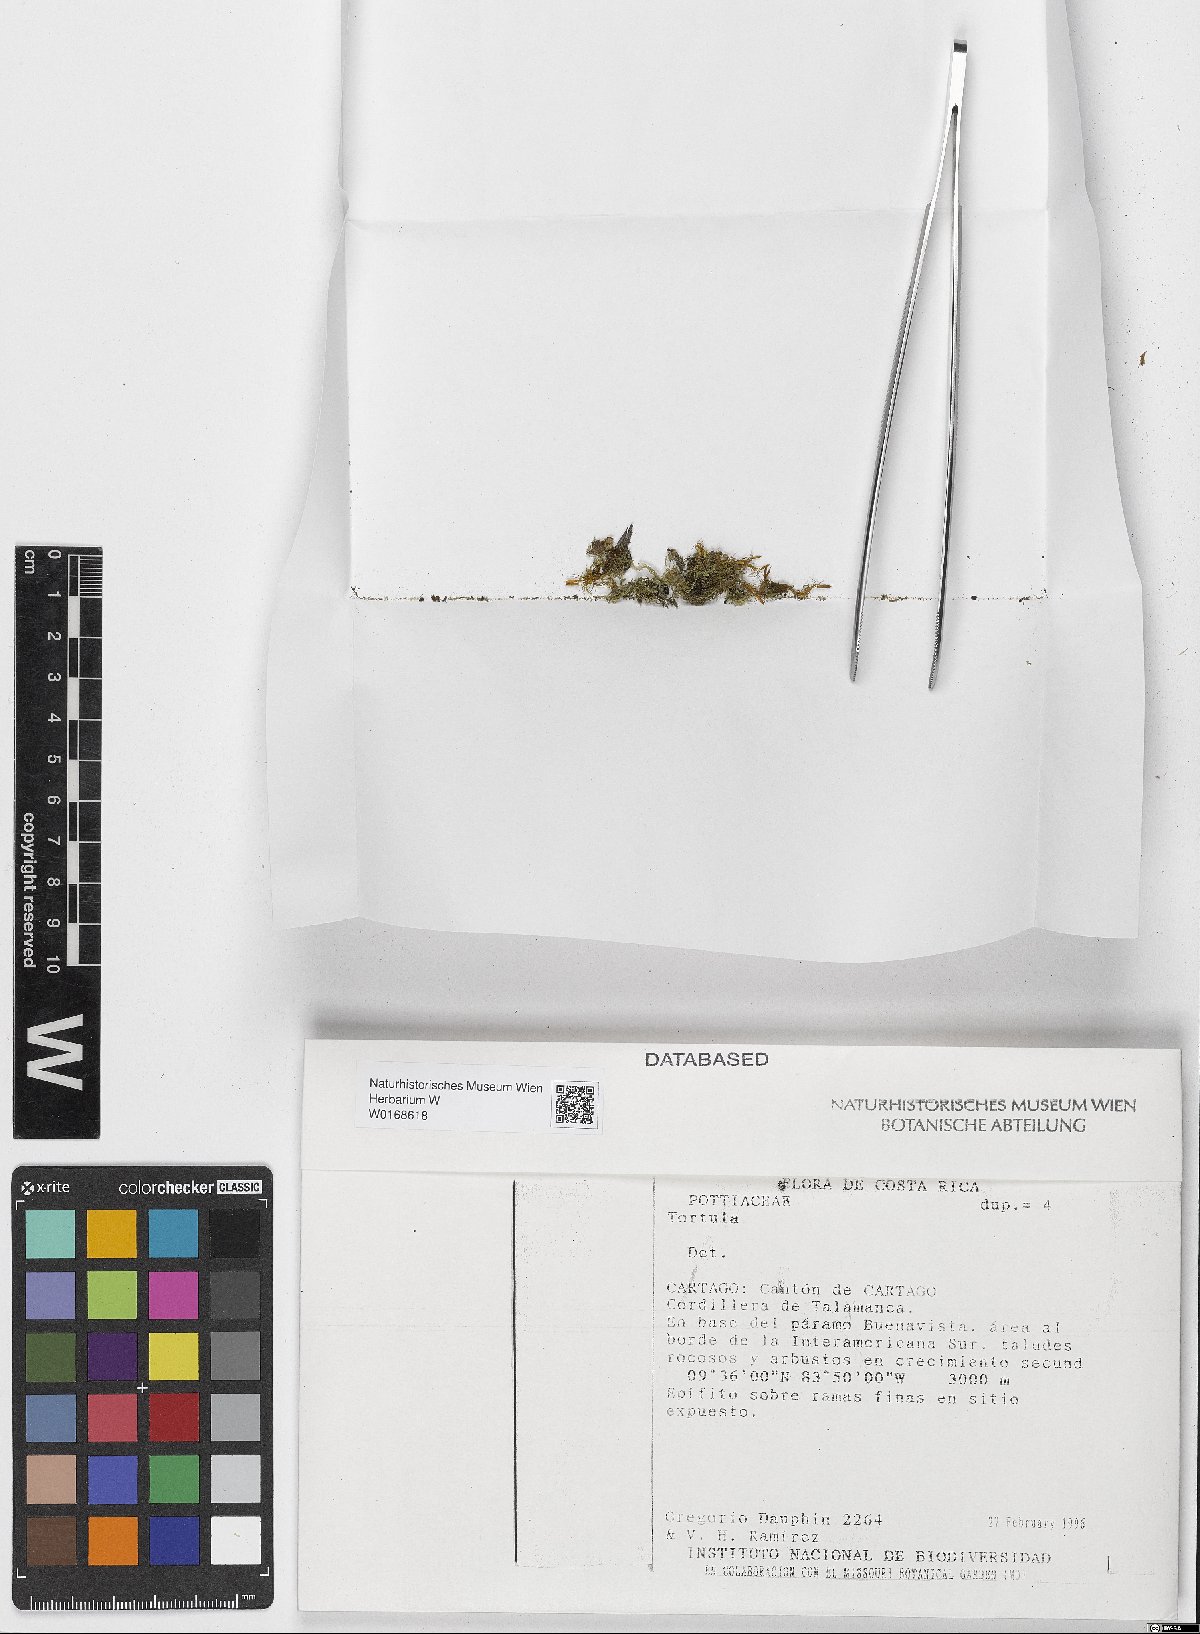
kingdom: Plantae
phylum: Bryophyta
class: Bryopsida
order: Pottiales
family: Pottiaceae
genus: Tortula
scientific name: Tortula
